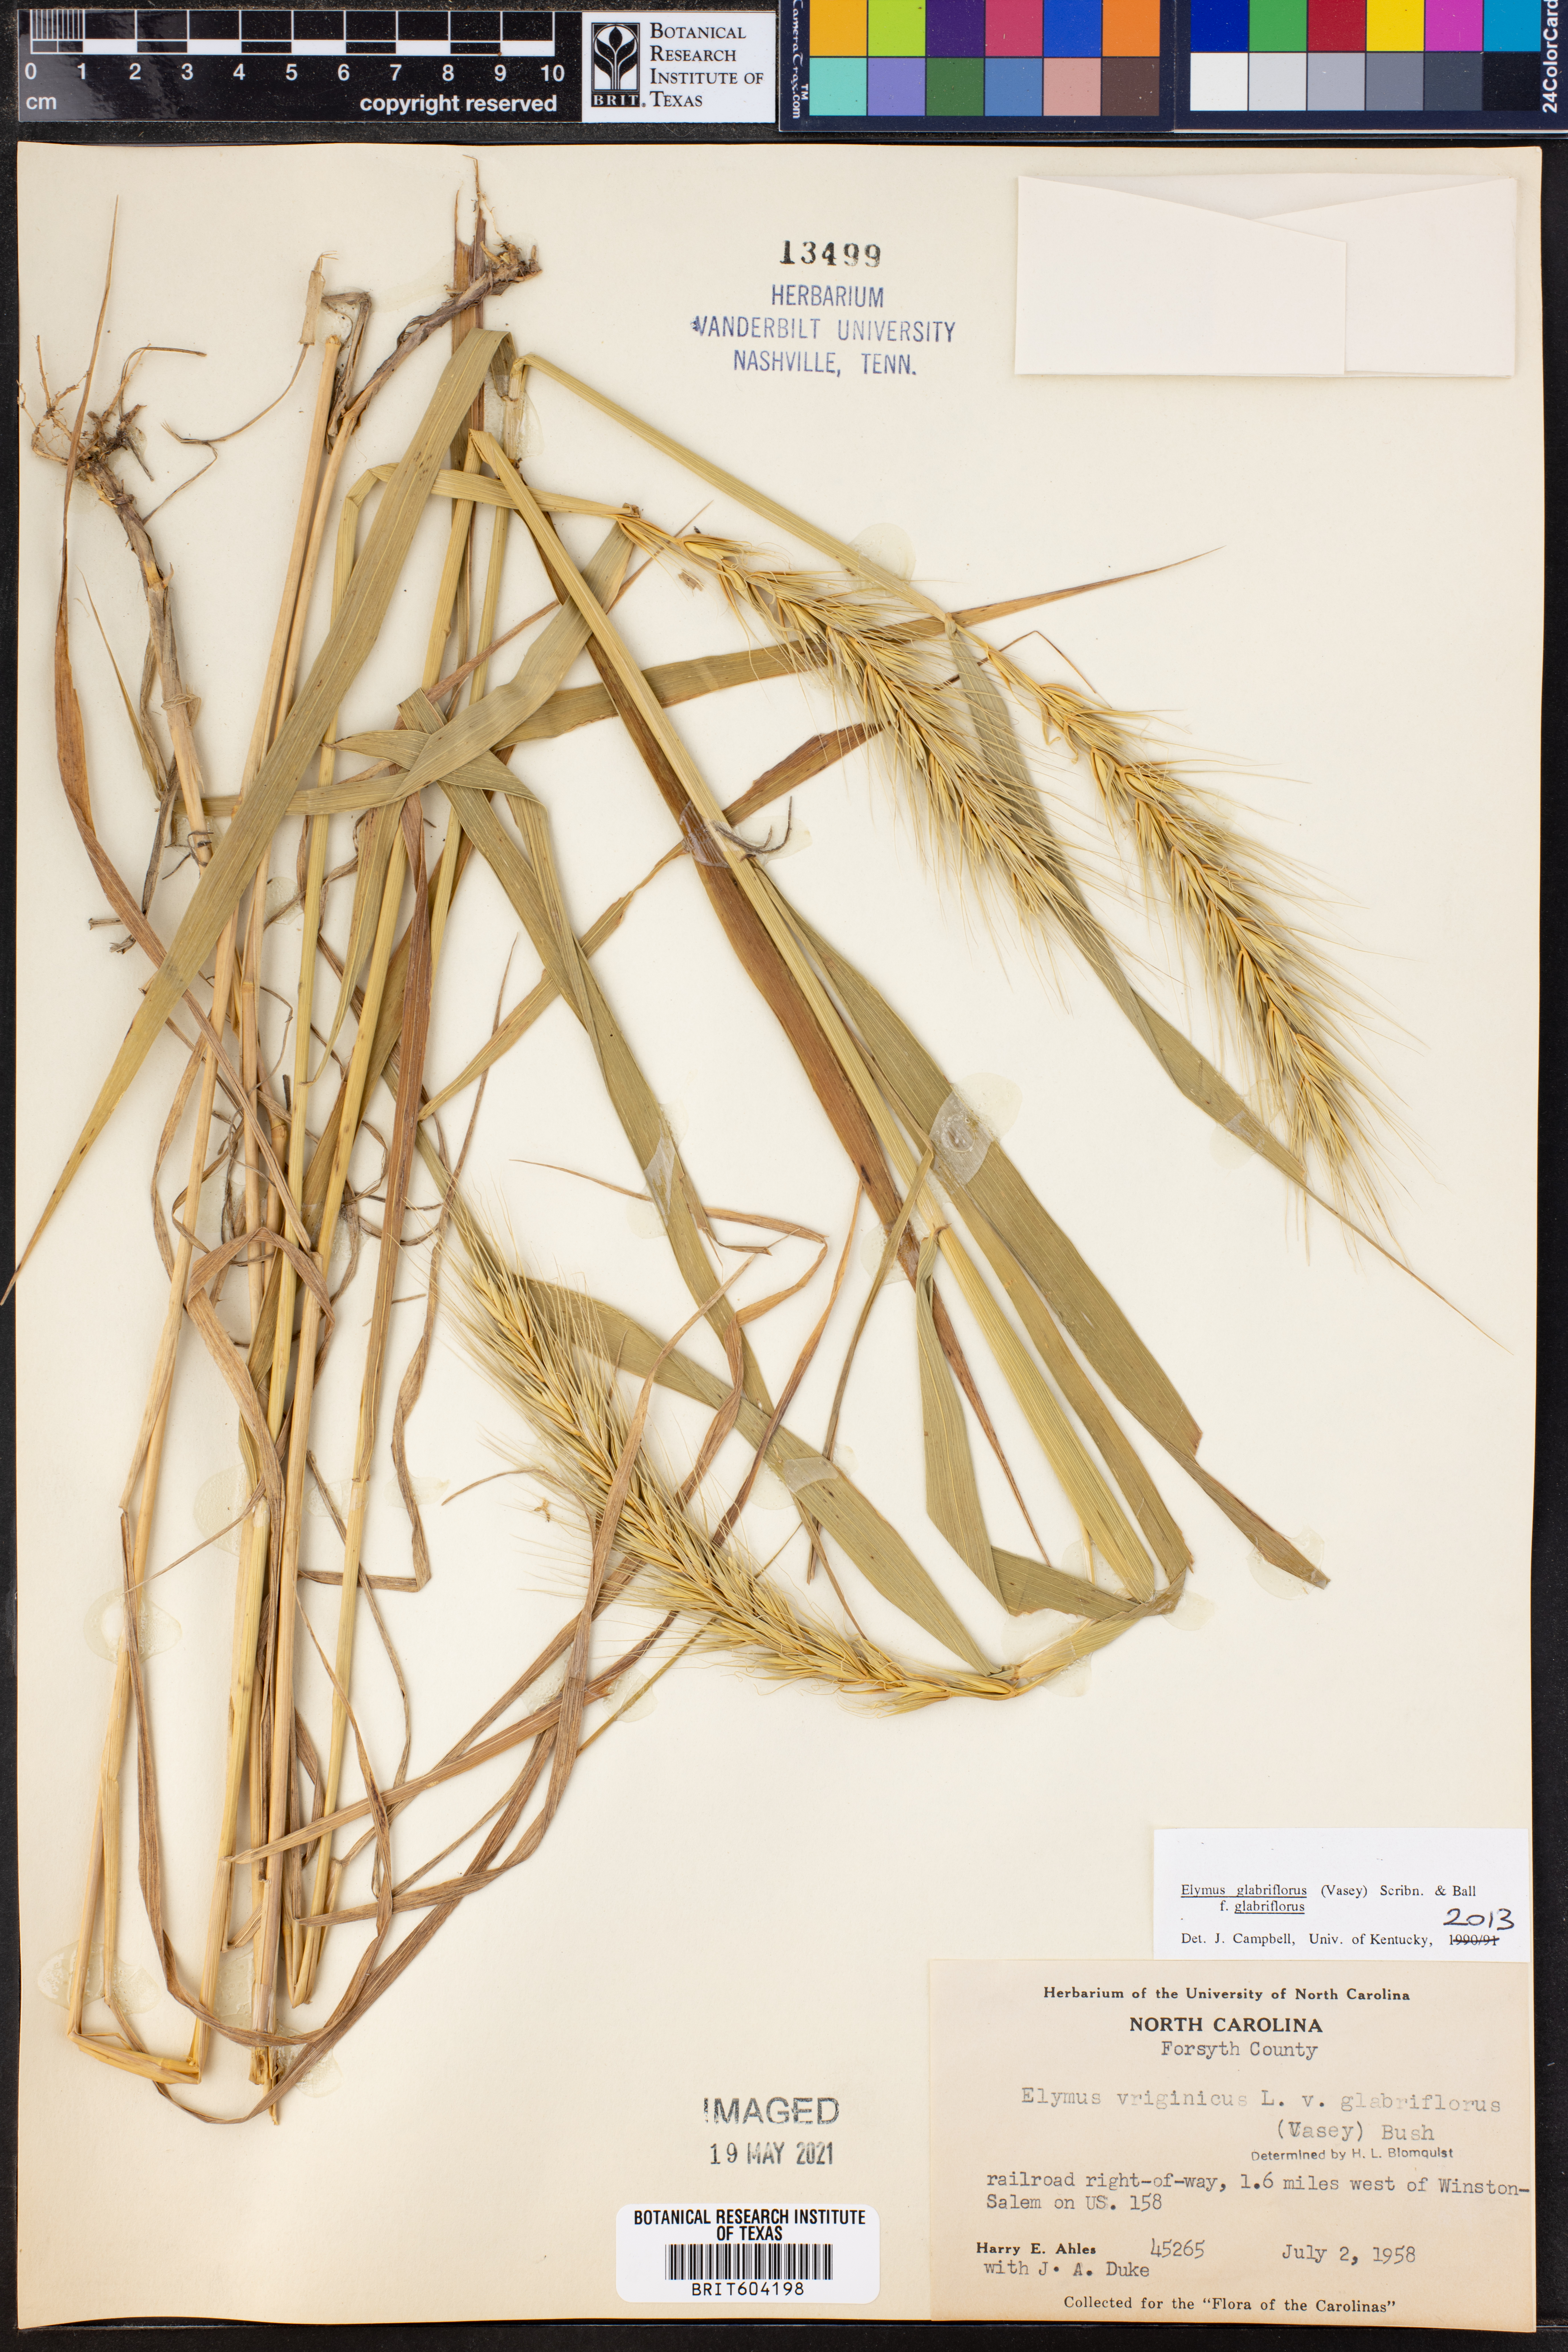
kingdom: Plantae
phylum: Tracheophyta
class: Liliopsida
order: Poales
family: Poaceae
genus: Elymus
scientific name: Elymus virginicus
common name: Common eastern wildrye
